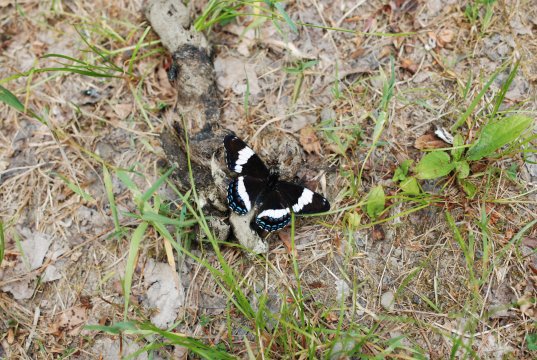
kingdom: Animalia
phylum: Arthropoda
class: Insecta
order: Lepidoptera
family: Nymphalidae
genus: Limenitis
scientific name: Limenitis arthemis
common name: Red-spotted Admiral
